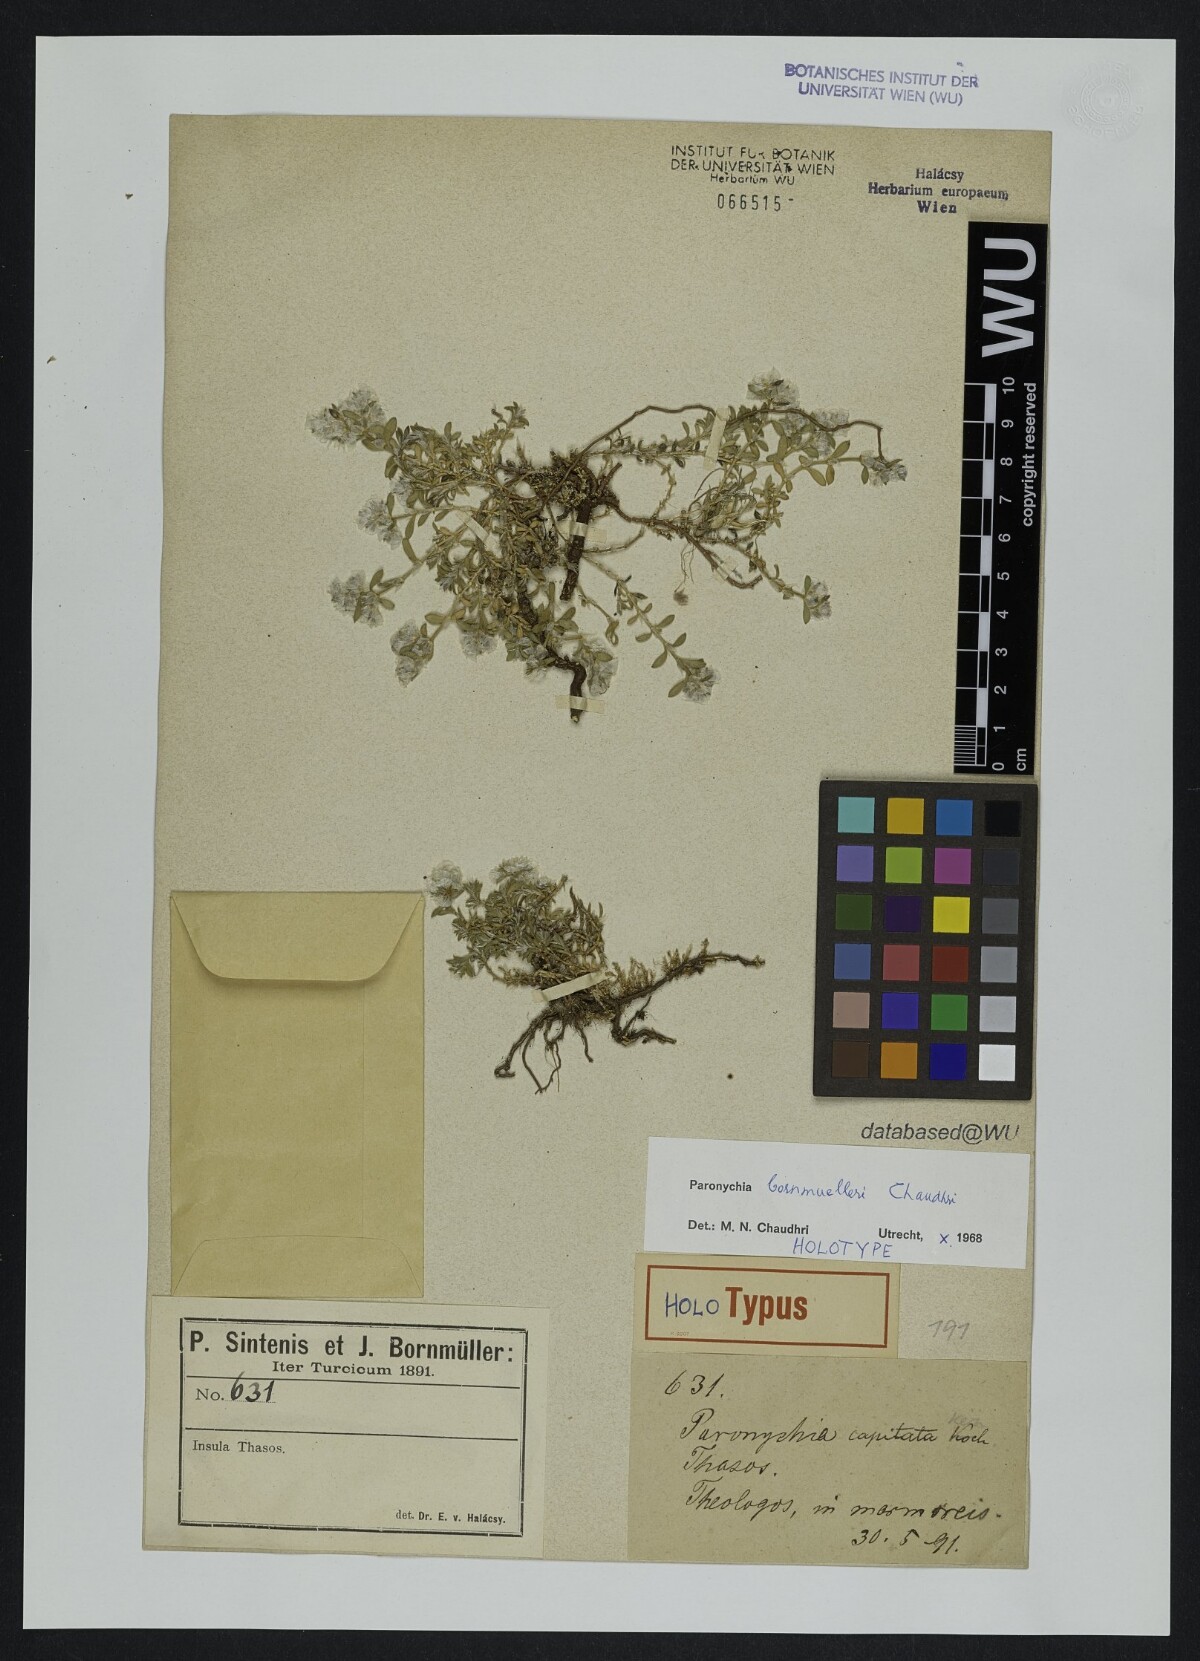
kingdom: Plantae
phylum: Tracheophyta
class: Magnoliopsida
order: Caryophyllales
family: Caryophyllaceae
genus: Paronychia
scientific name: Paronychia bornmuelleri
